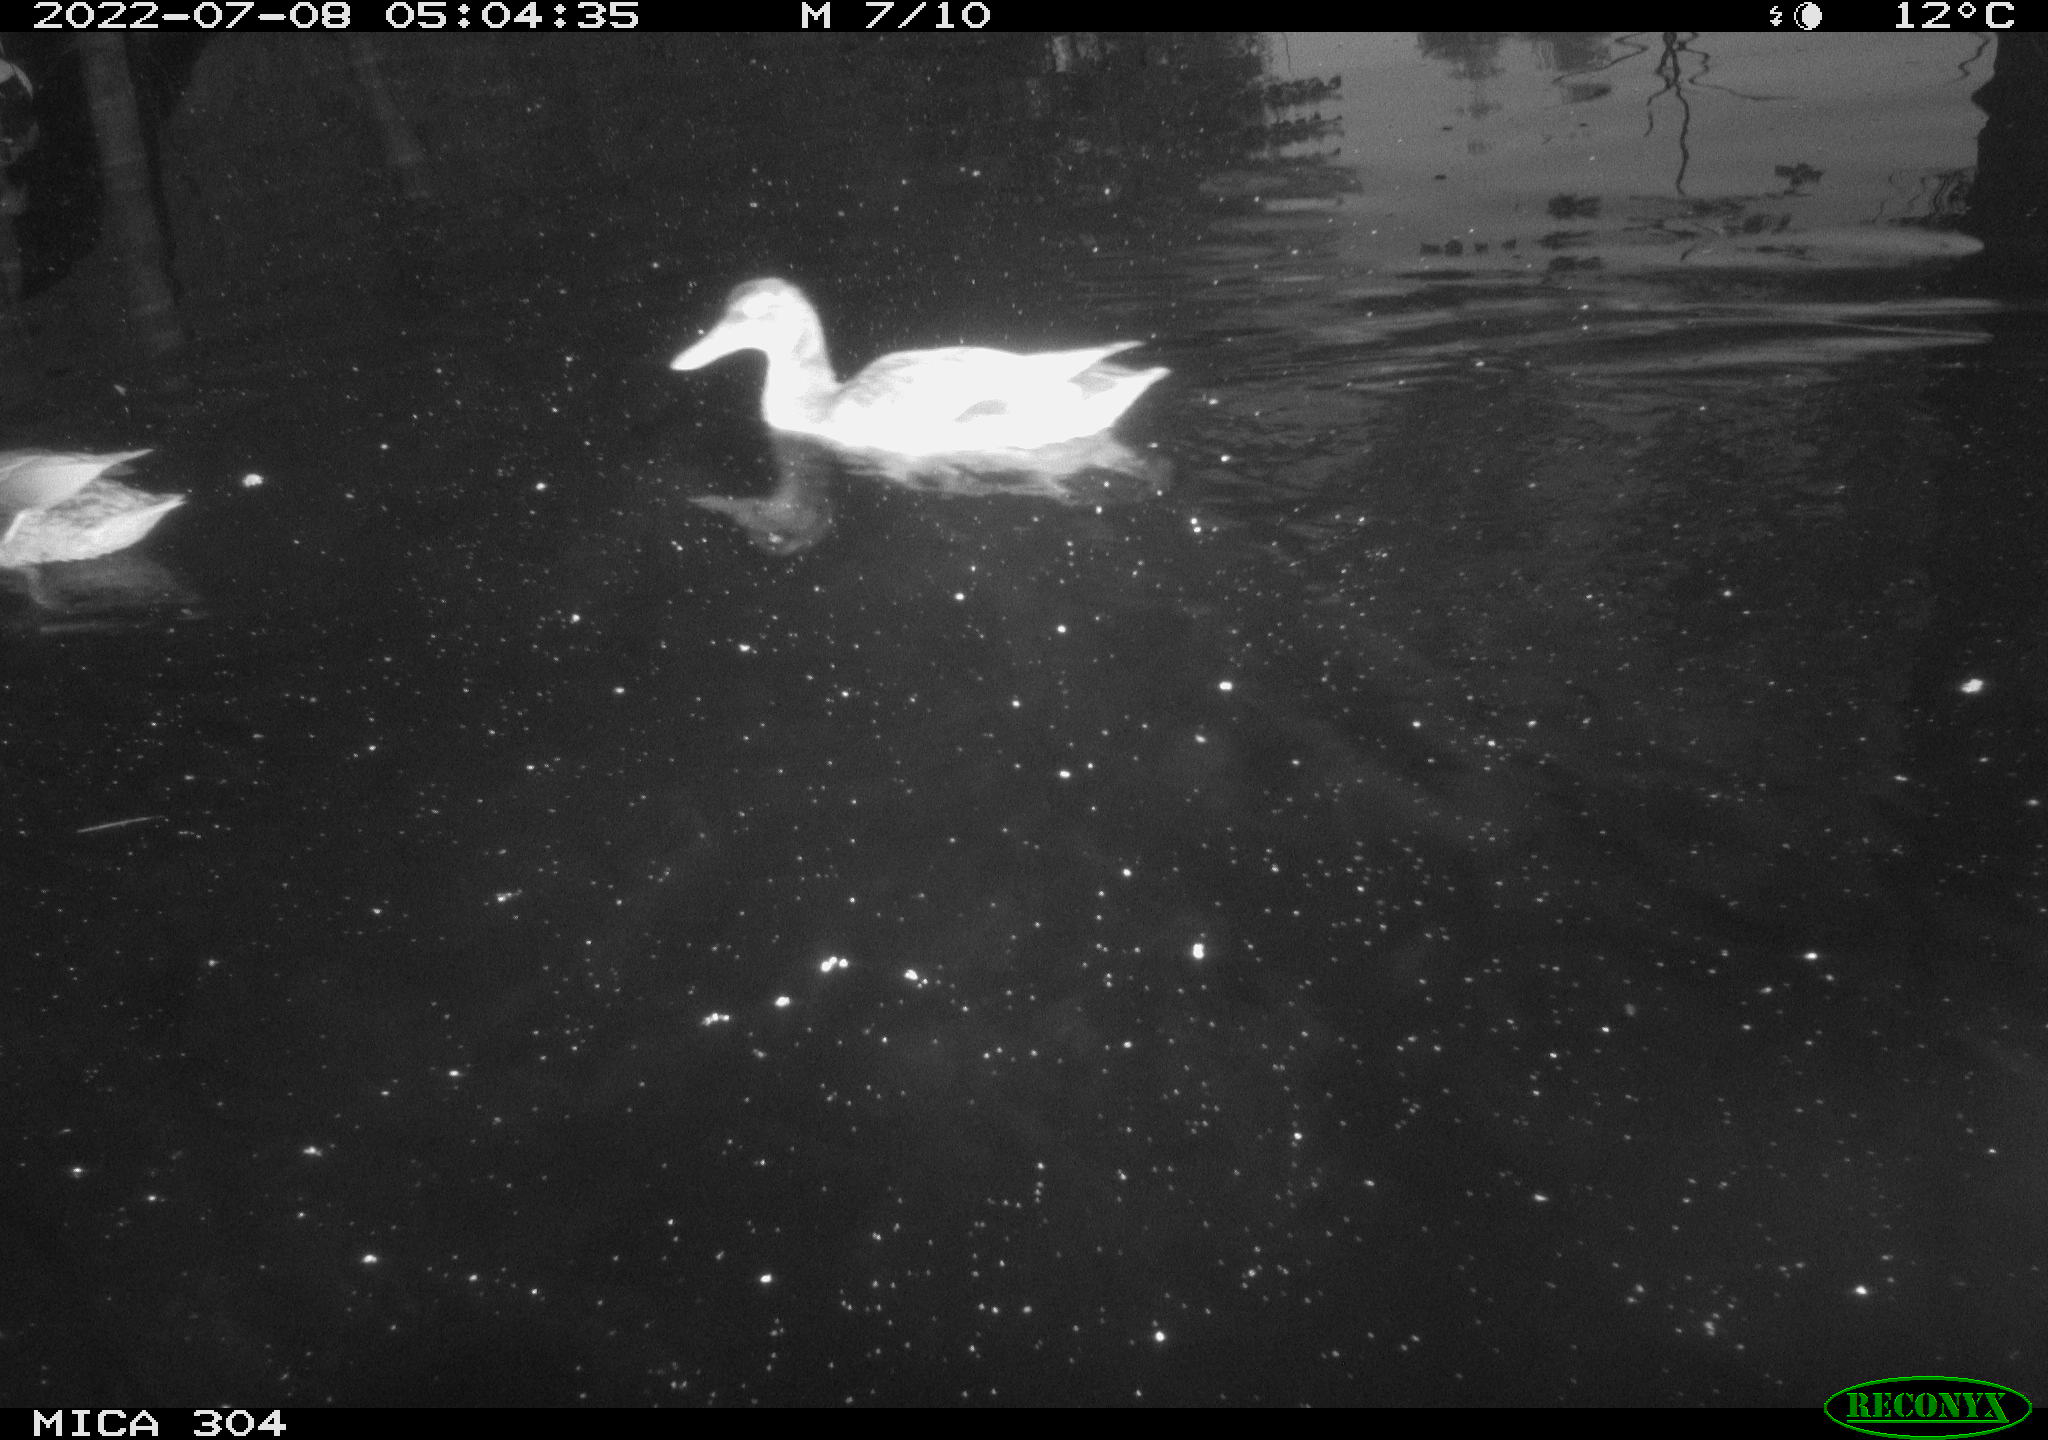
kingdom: Animalia
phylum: Chordata
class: Aves
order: Anseriformes
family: Anatidae
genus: Mareca
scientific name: Mareca strepera
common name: Gadwall
